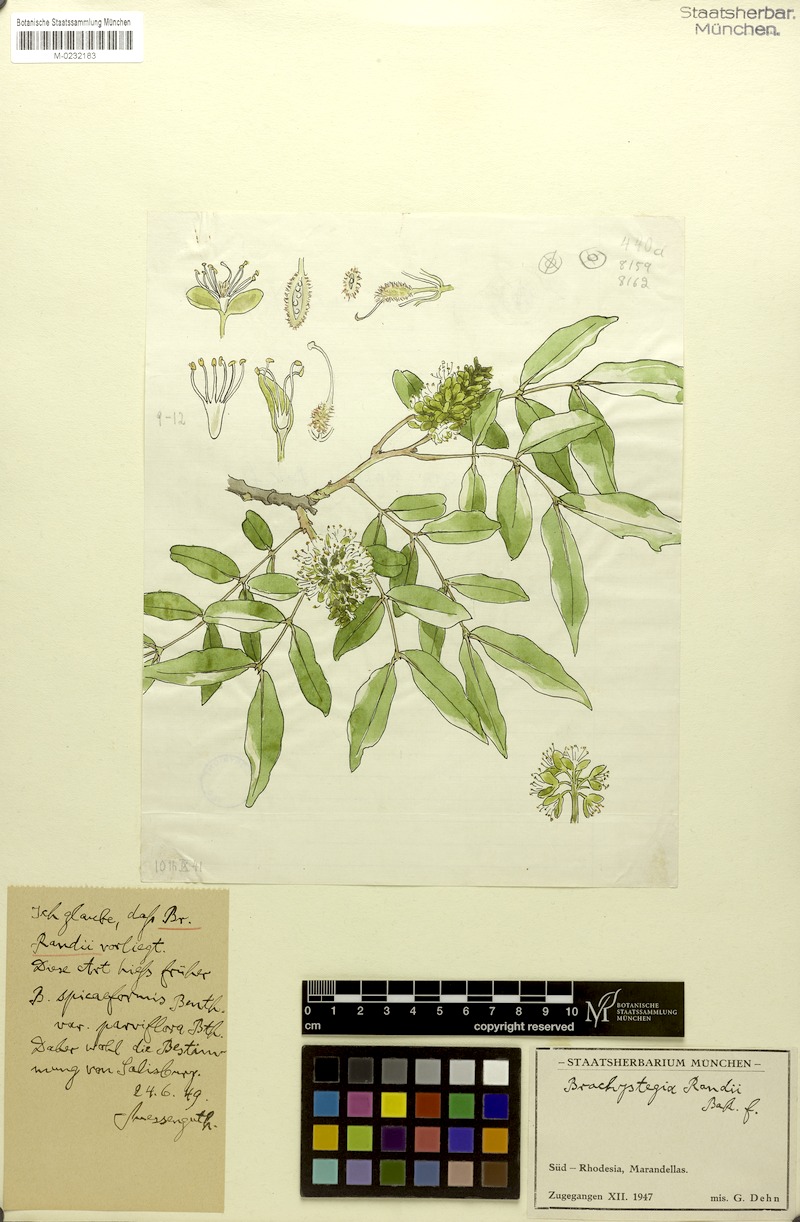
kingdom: Plantae
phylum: Tracheophyta
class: Magnoliopsida
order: Fabales
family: Fabaceae
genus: Brachystegia
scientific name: Brachystegia spiciformis
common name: Zebrawood
